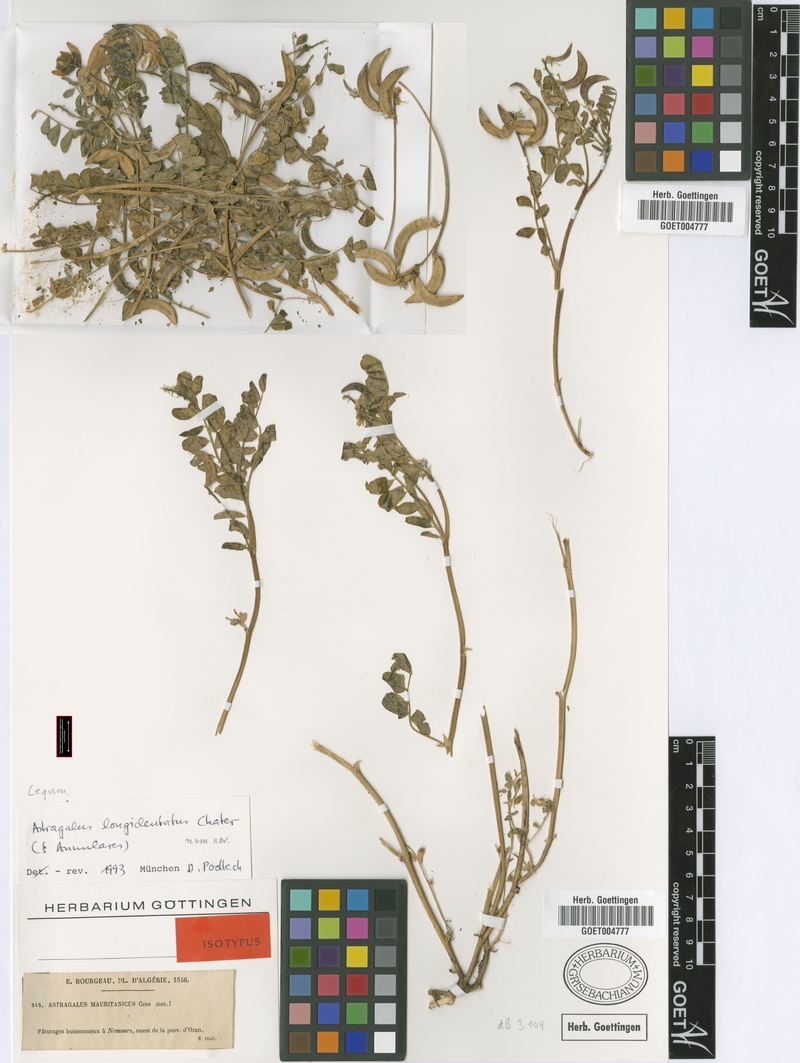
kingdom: Plantae
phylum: Tracheophyta
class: Magnoliopsida
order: Fabales
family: Fabaceae
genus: Astragalus
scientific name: Astragalus longidentatus
